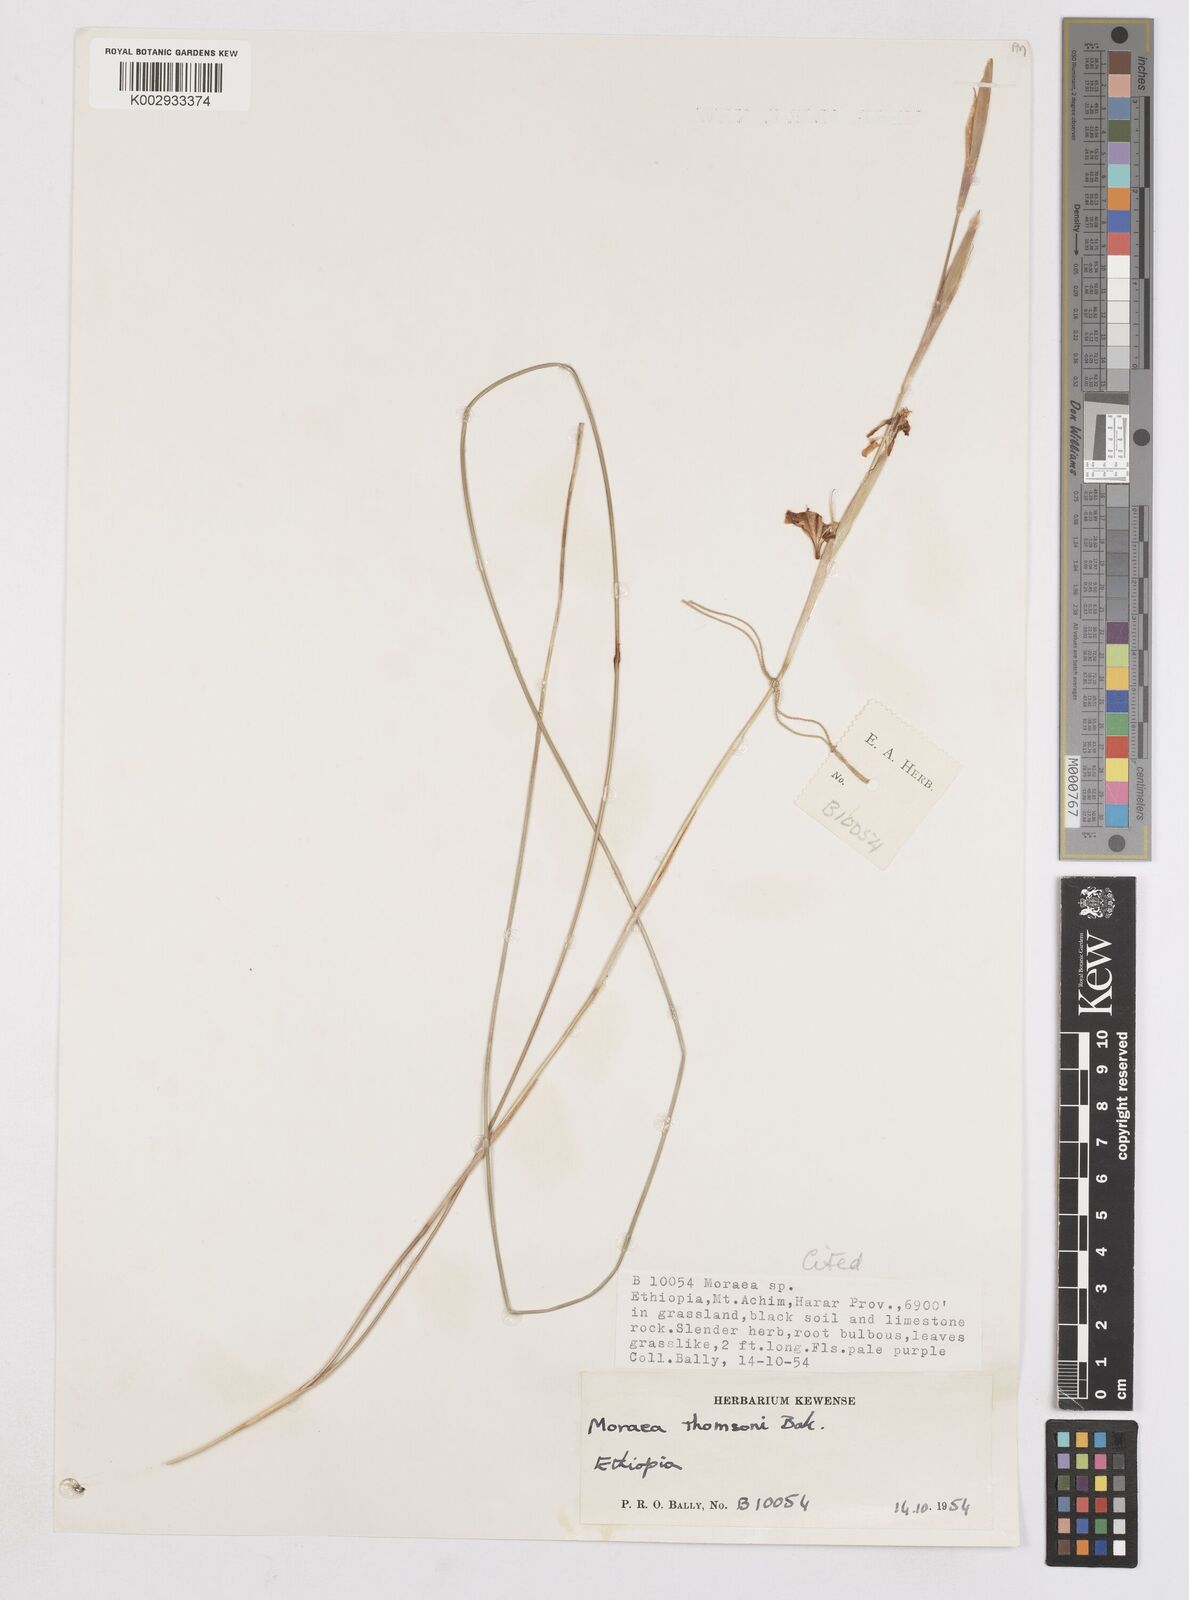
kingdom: Plantae
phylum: Tracheophyta
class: Liliopsida
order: Asparagales
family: Iridaceae
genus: Moraea
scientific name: Moraea thomsonii
